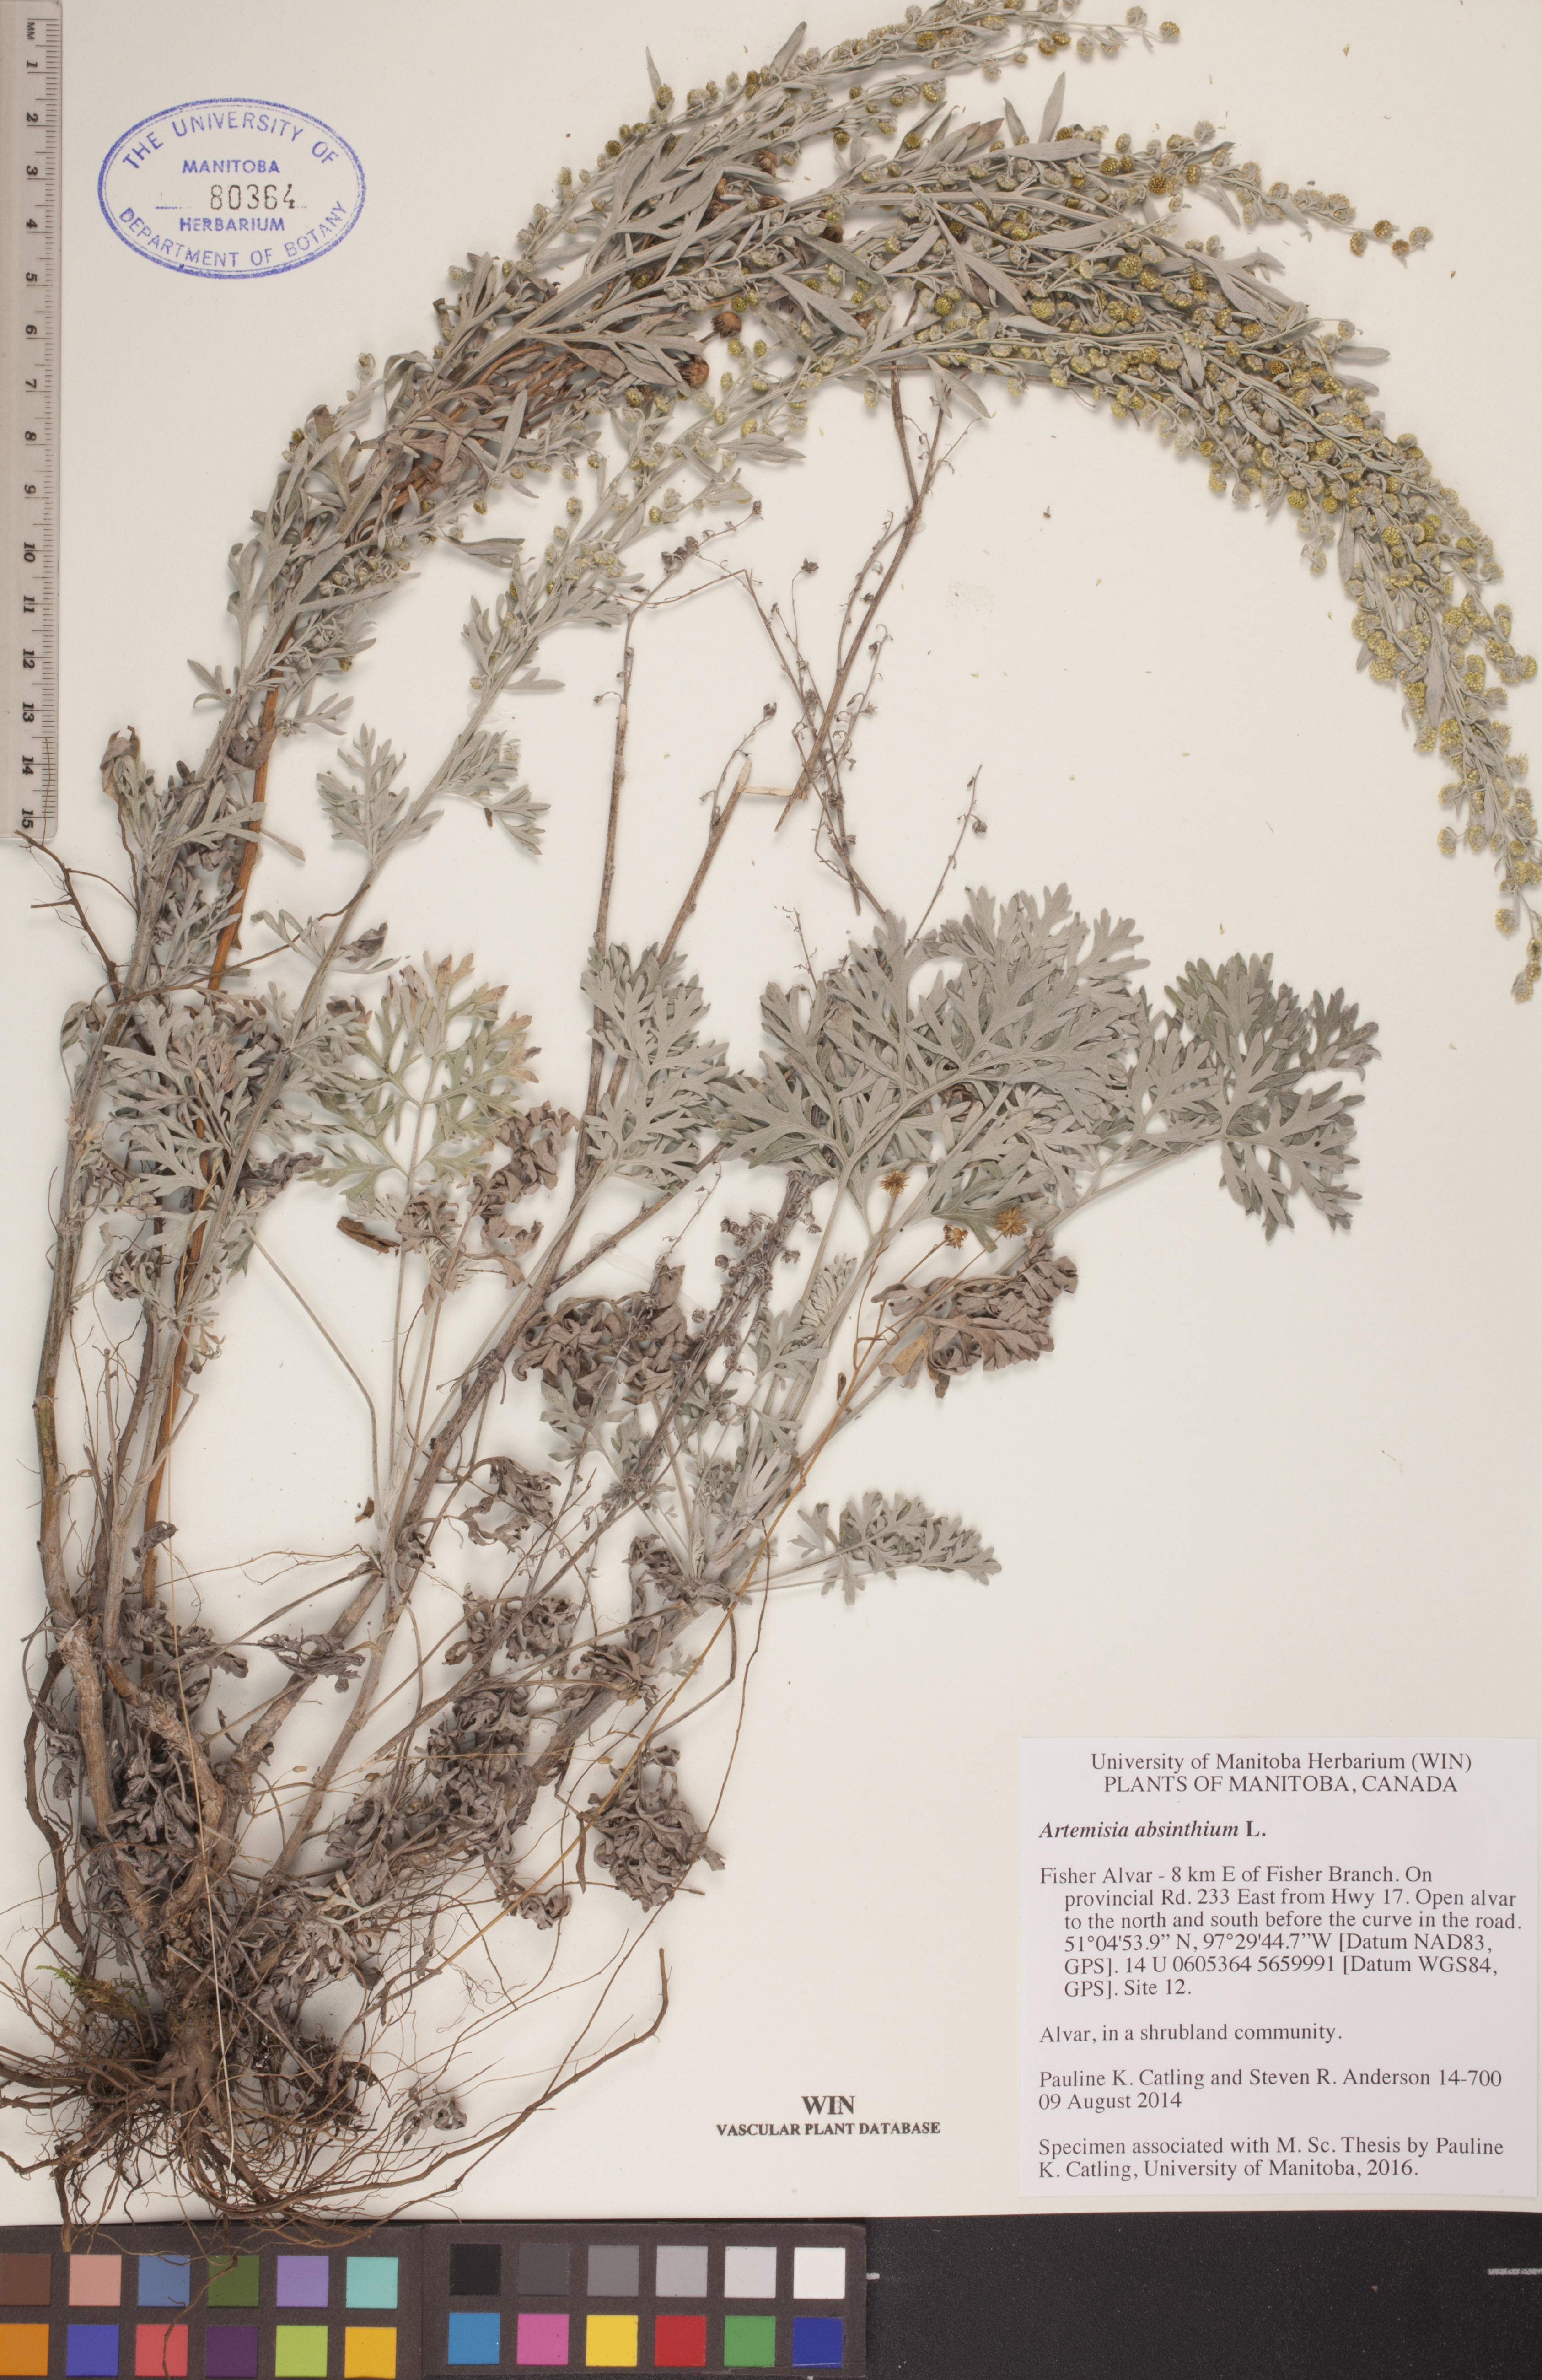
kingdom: Plantae
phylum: Tracheophyta
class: Magnoliopsida
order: Asterales
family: Asteraceae
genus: Artemisia
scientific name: Artemisia absinthium
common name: Wormwood
